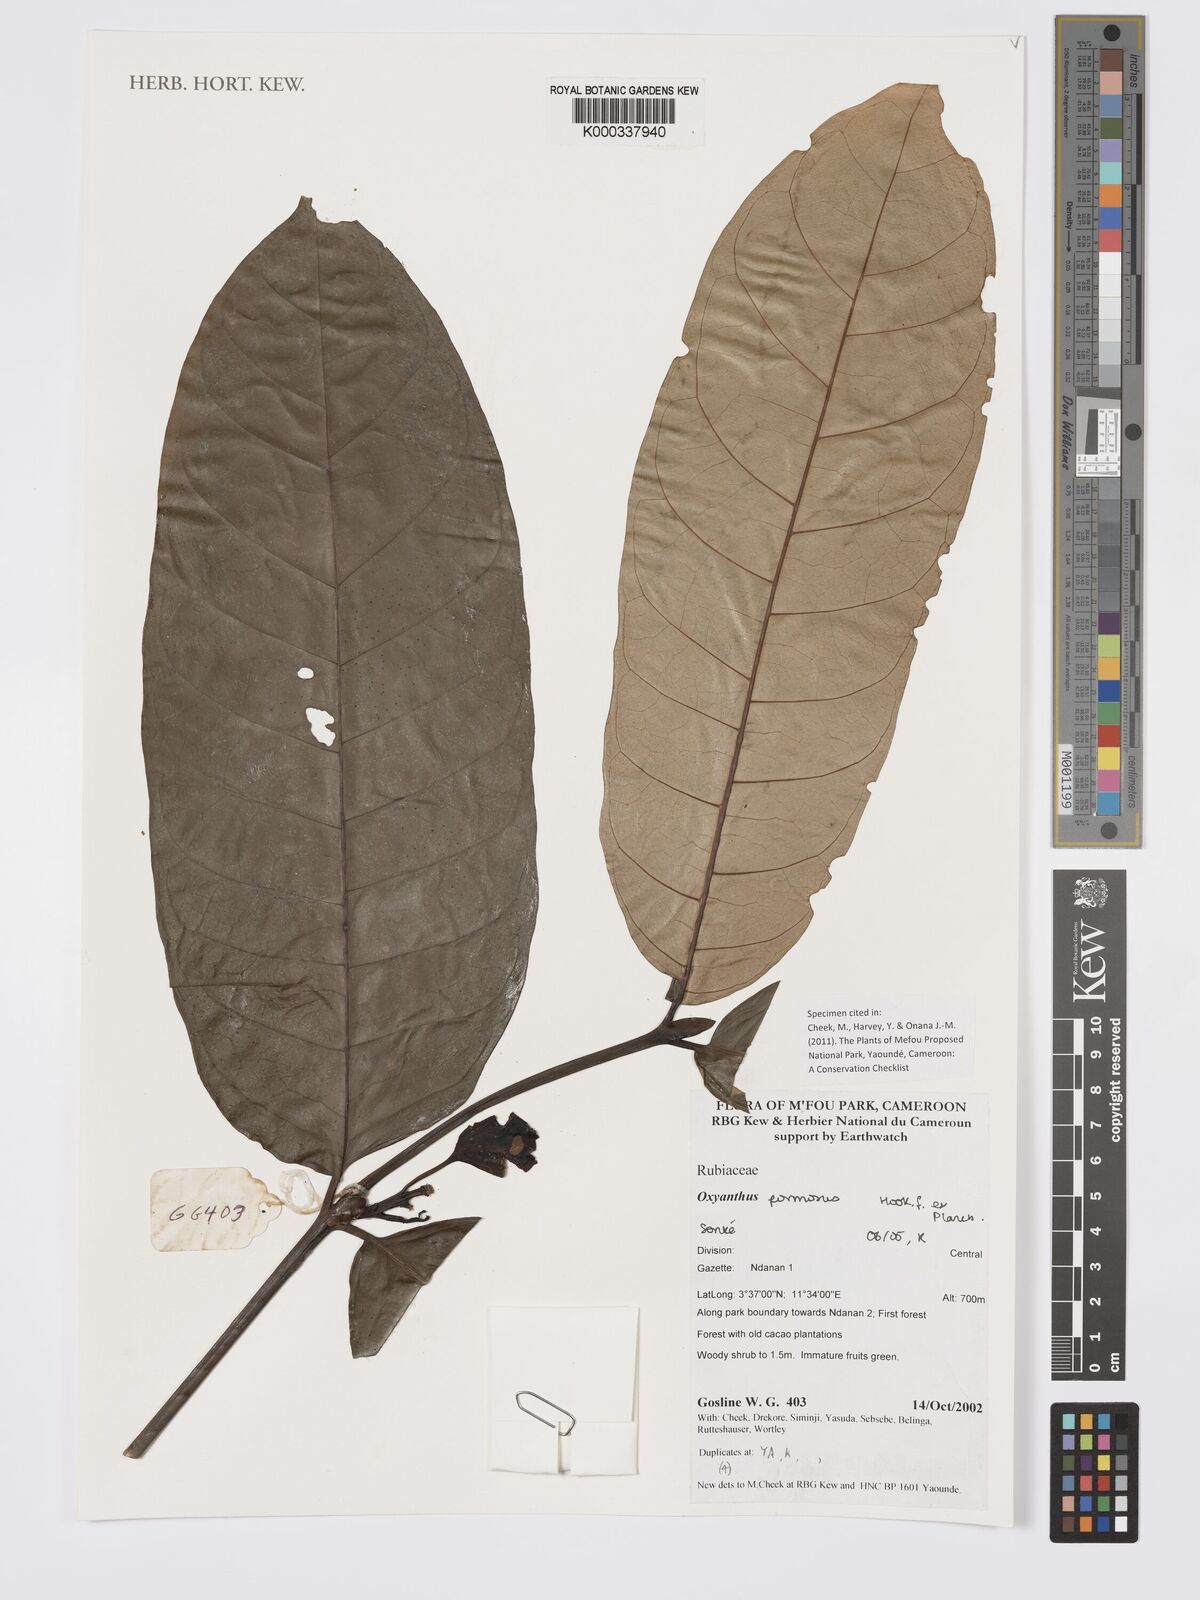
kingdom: Plantae
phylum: Tracheophyta
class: Magnoliopsida
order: Gentianales
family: Rubiaceae
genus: Oxyanthus
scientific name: Oxyanthus
